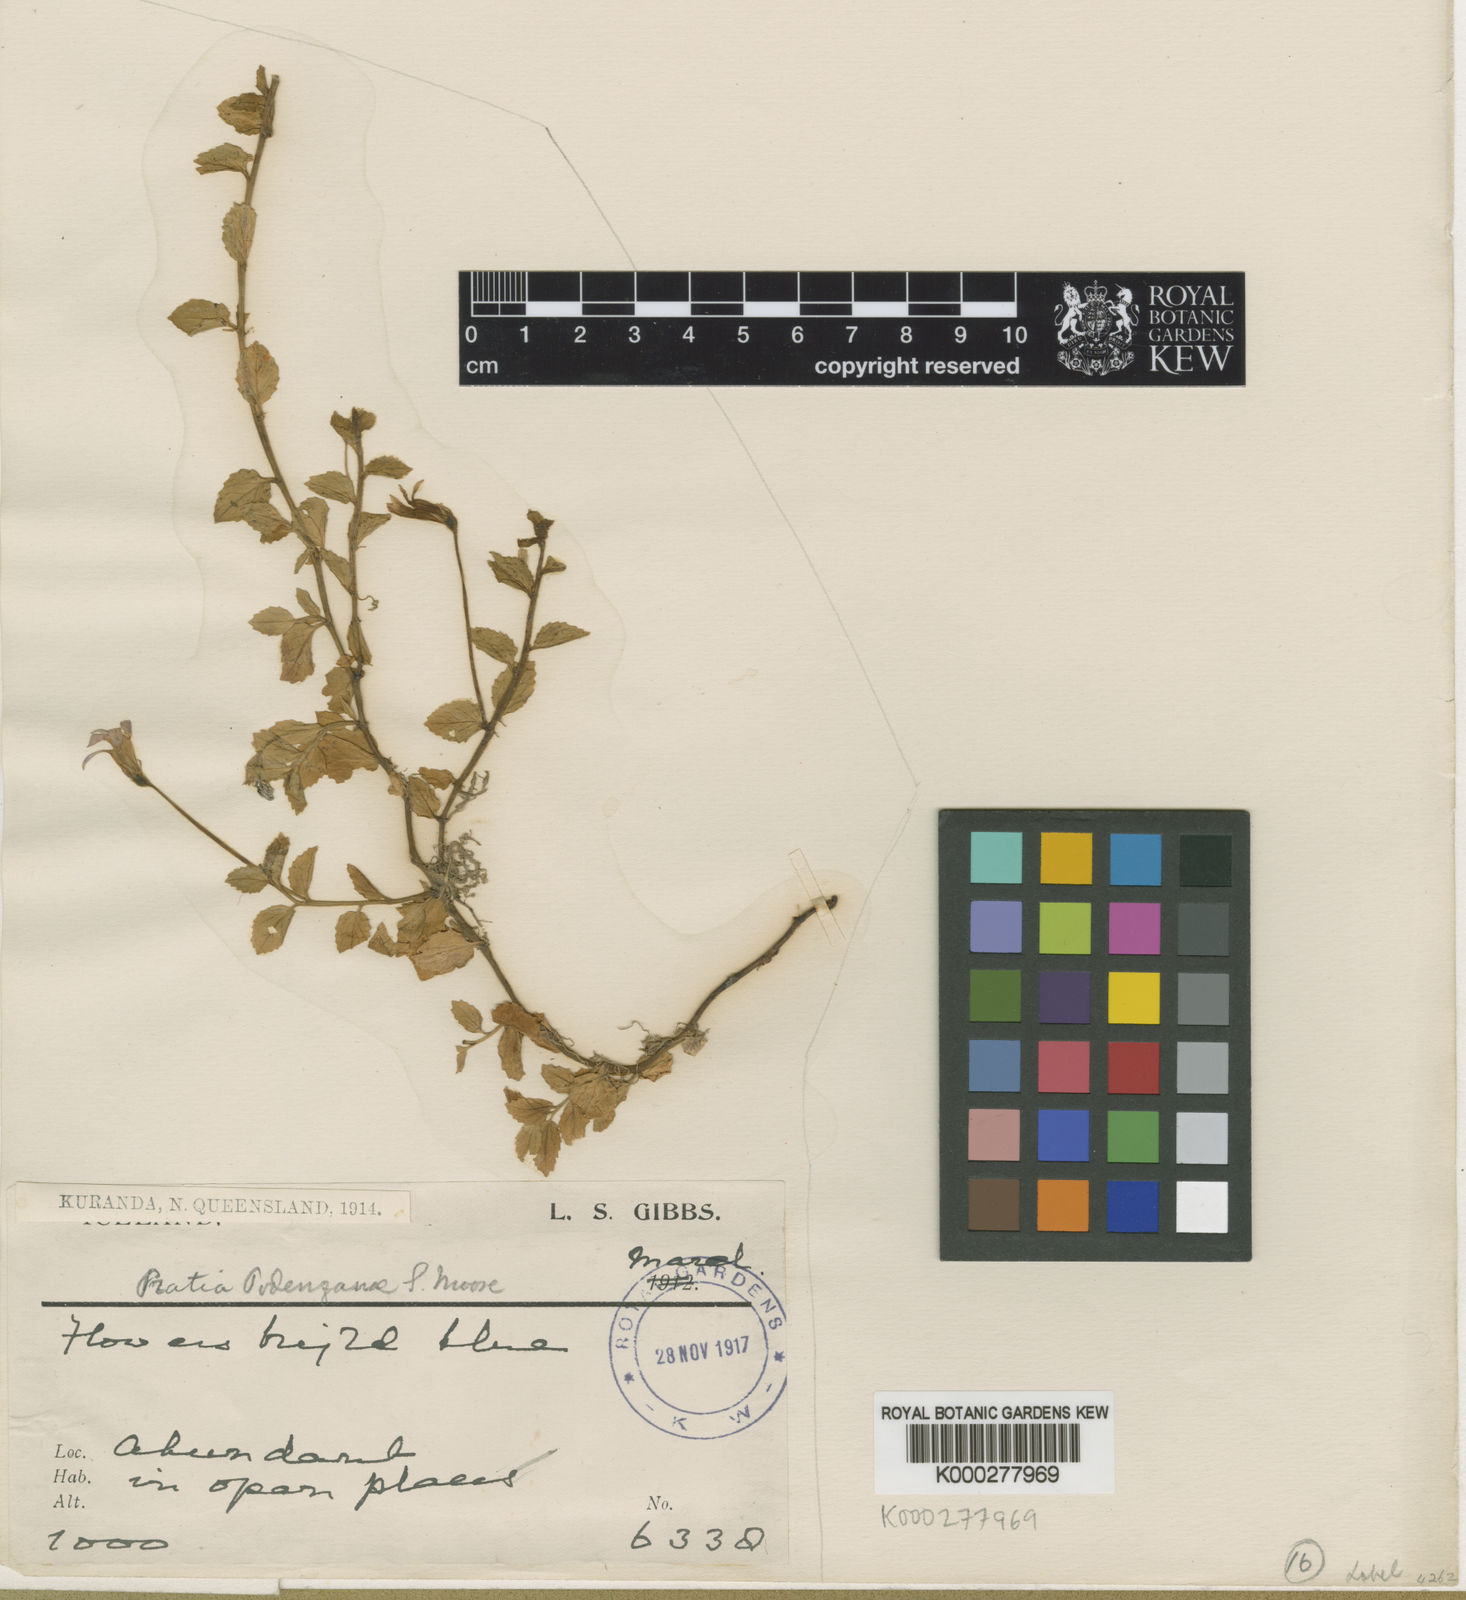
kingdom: Plantae
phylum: Tracheophyta
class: Magnoliopsida
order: Asterales
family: Campanulaceae
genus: Lobelia
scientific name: Lobelia nummularia
